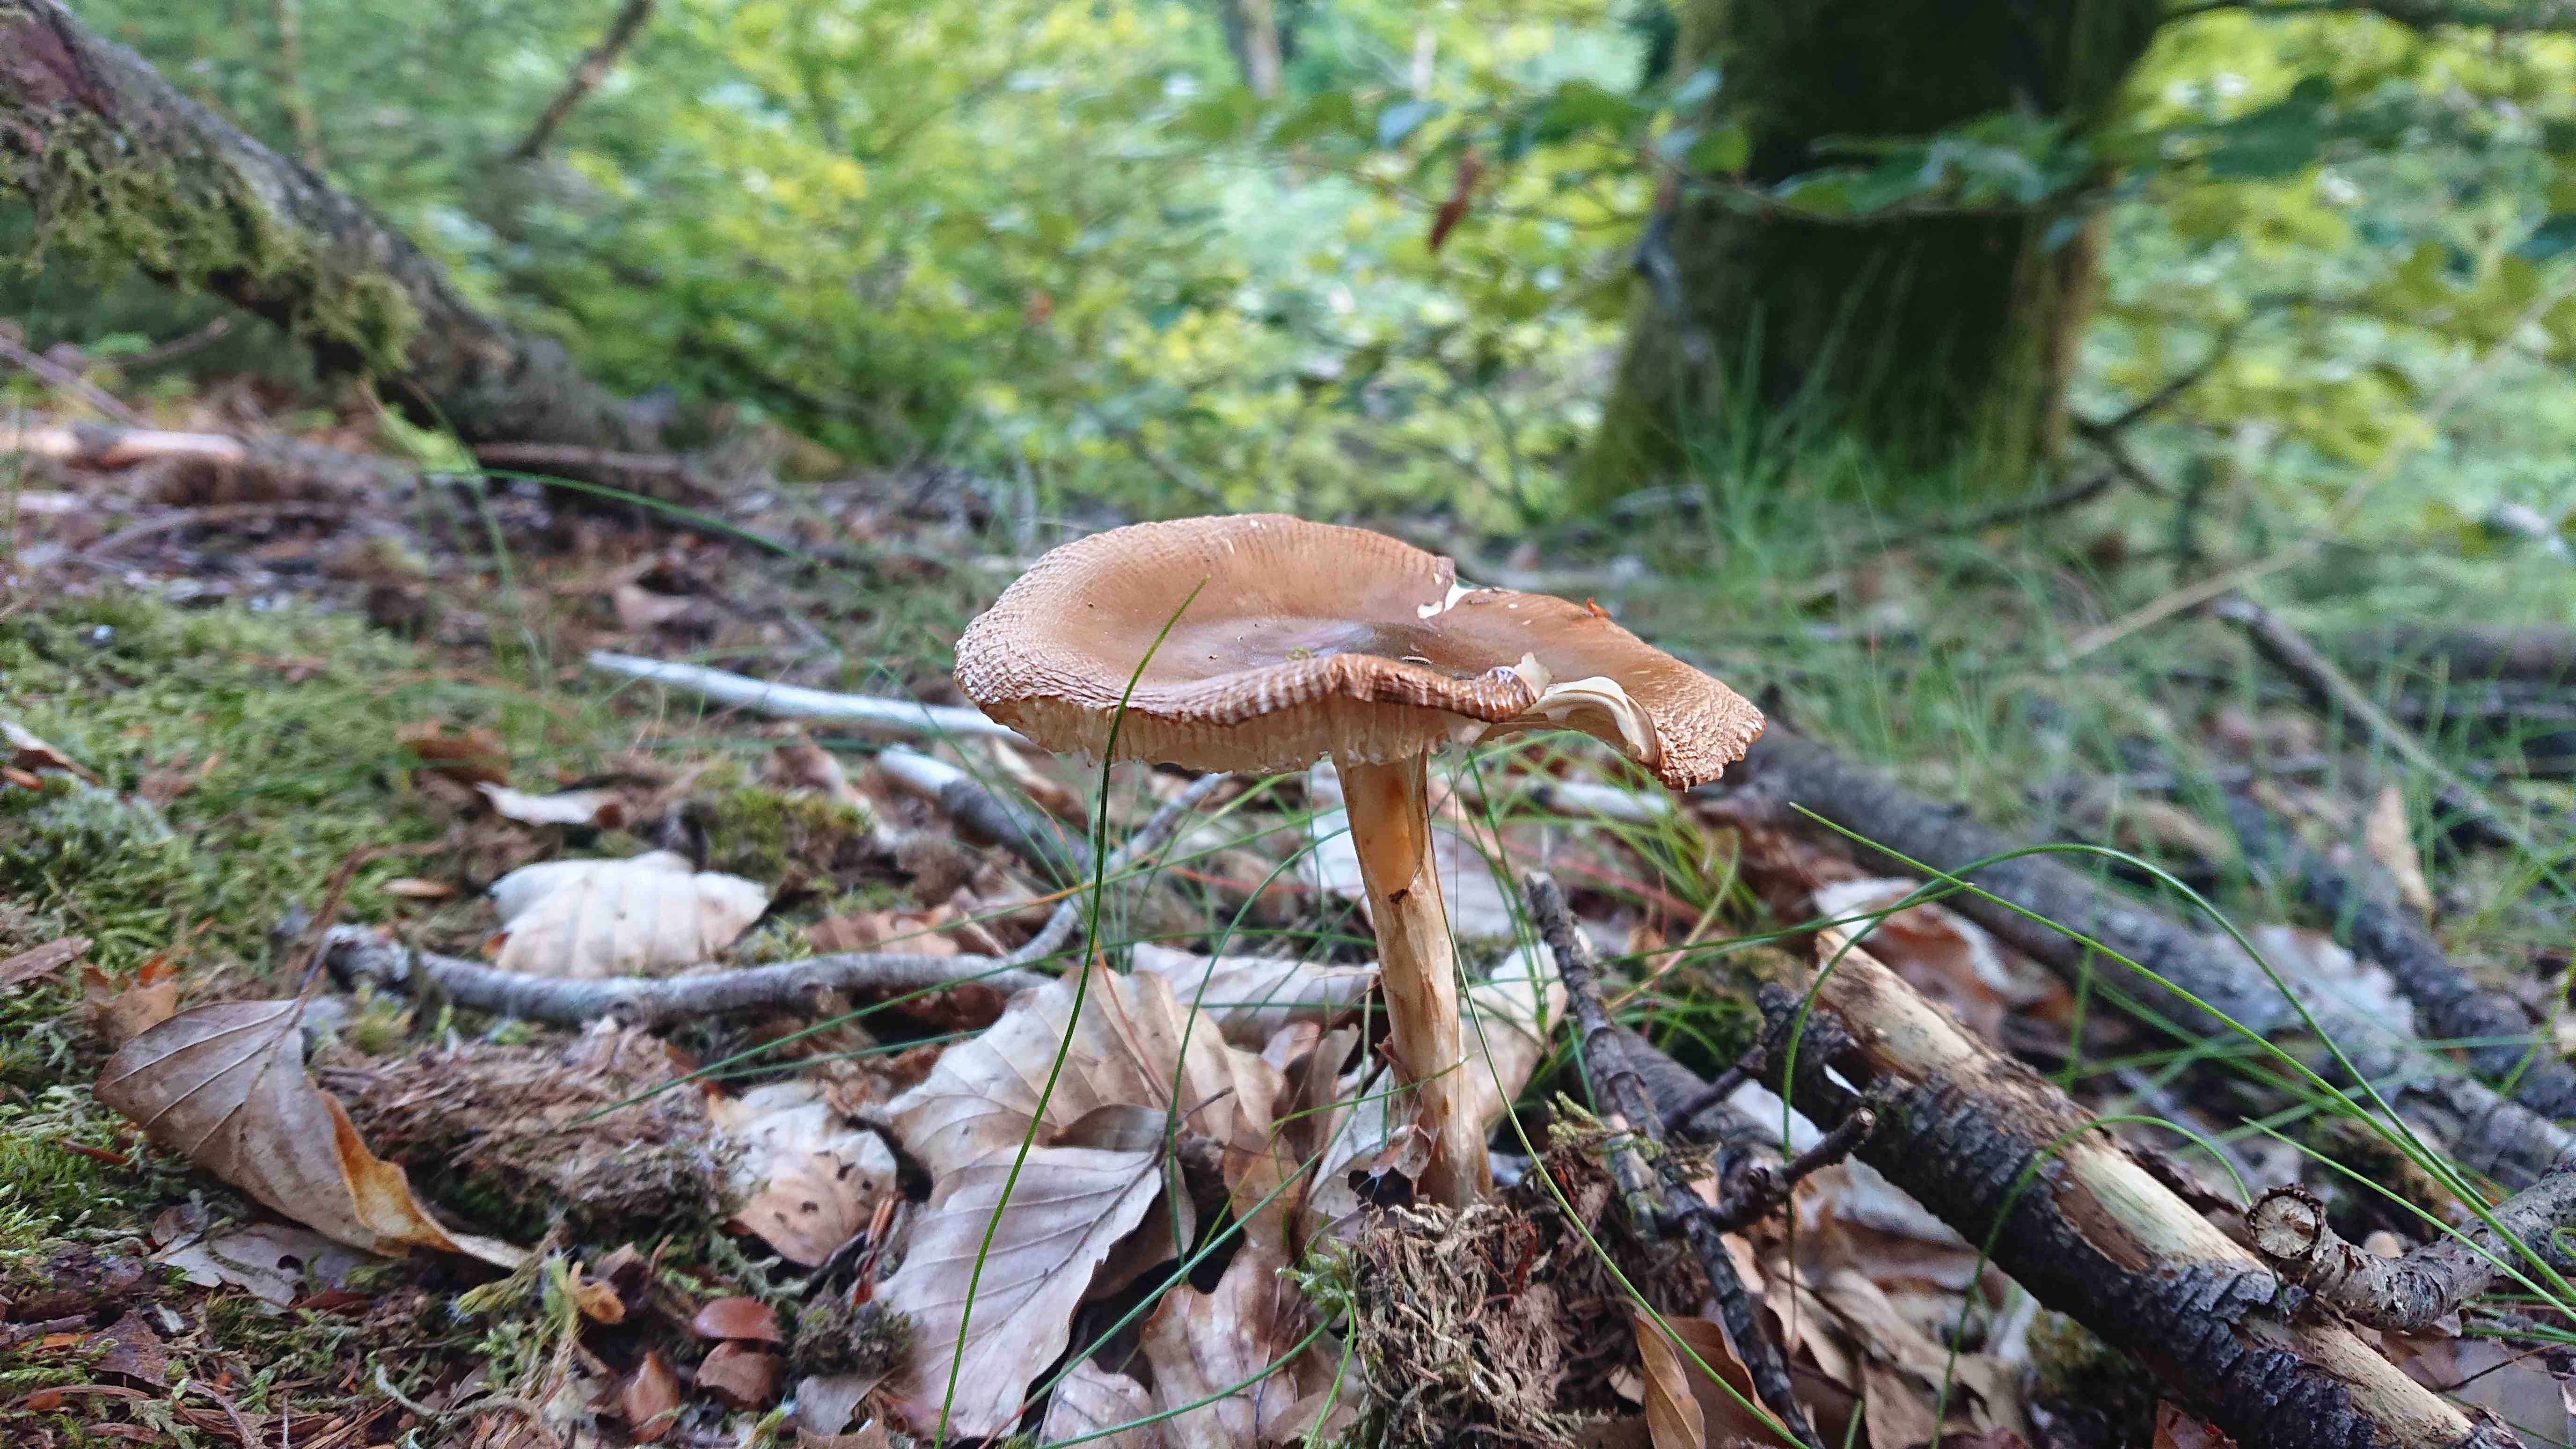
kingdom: Fungi
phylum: Basidiomycota
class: Agaricomycetes
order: Agaricales
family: Amanitaceae
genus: Amanita
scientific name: Amanita
